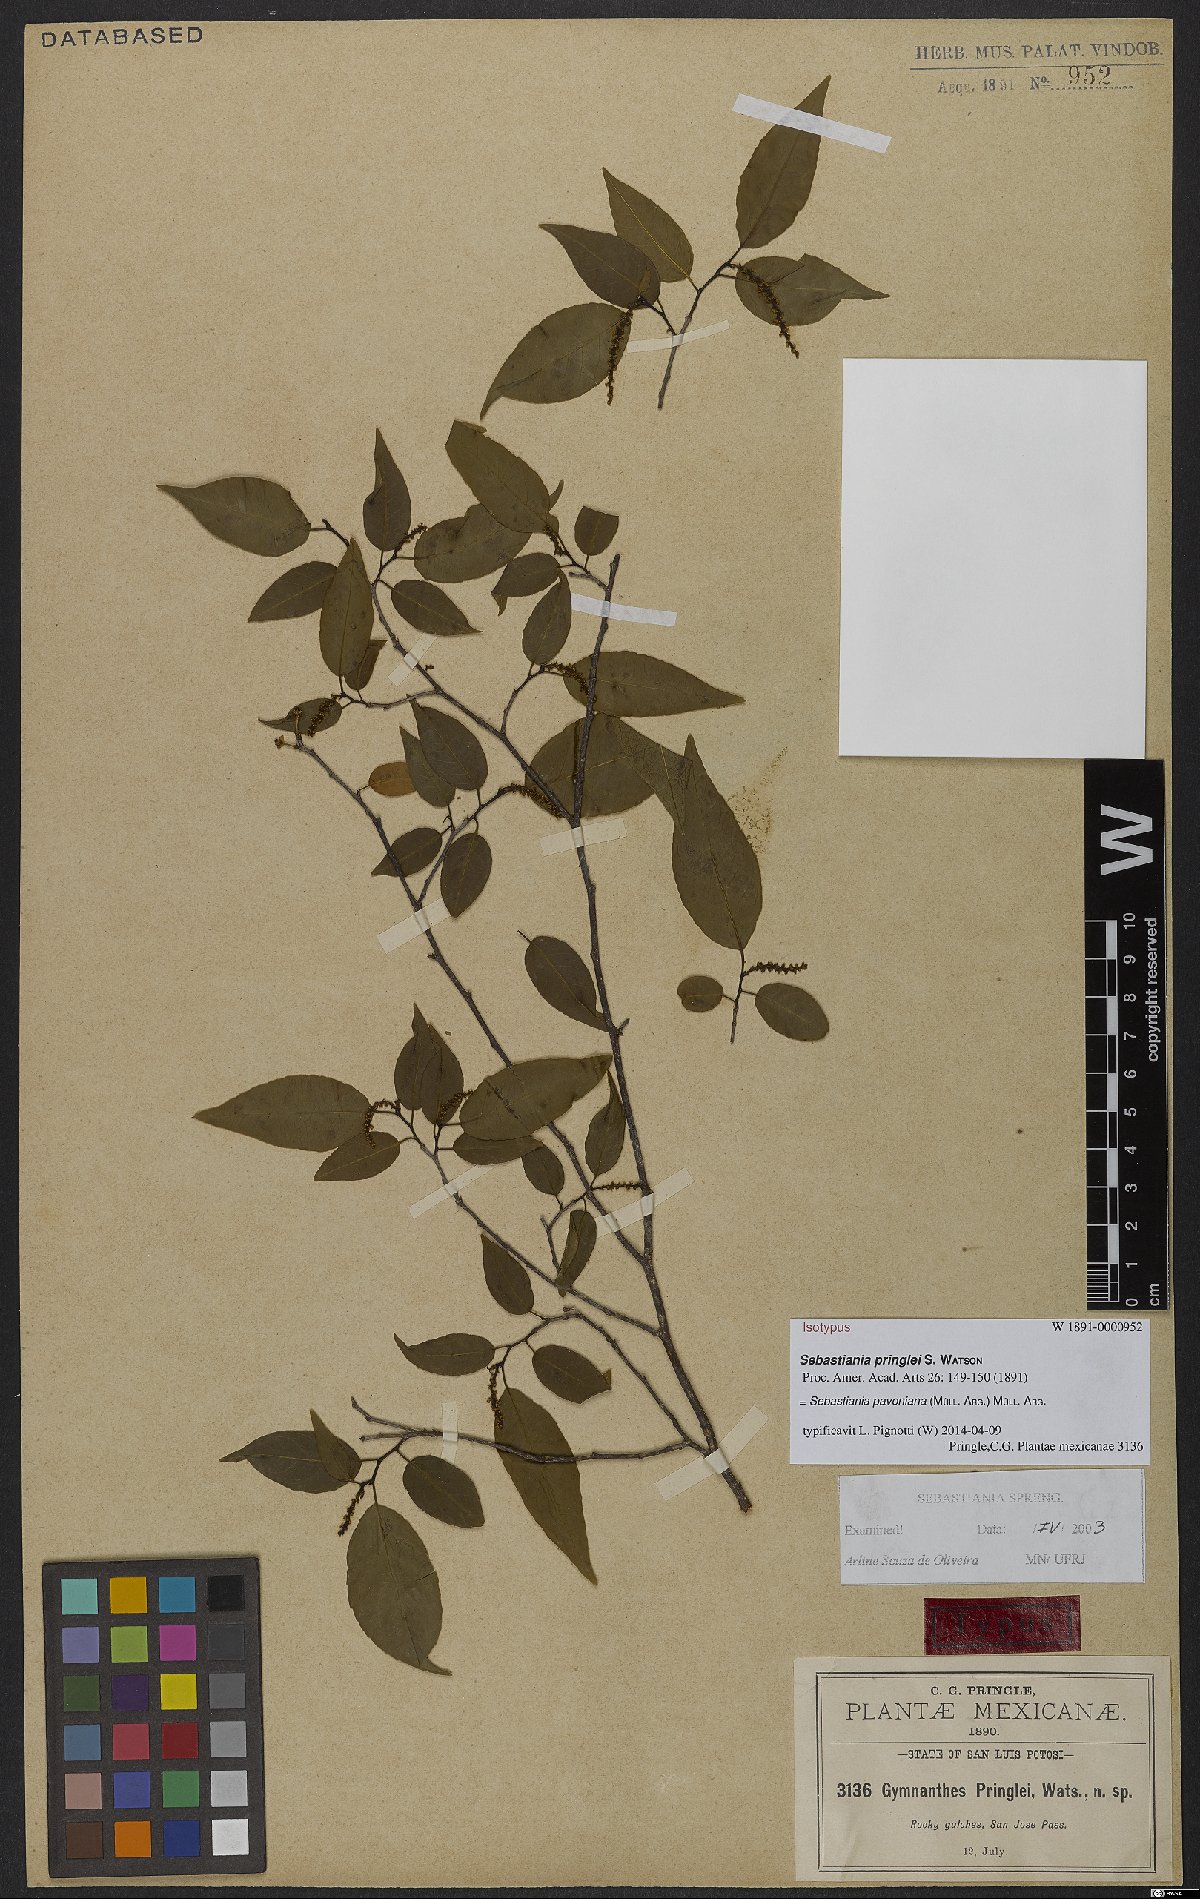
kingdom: Plantae
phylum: Tracheophyta
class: Magnoliopsida
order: Malpighiales
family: Euphorbiaceae
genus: Sebastiania
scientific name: Sebastiania pavoniana
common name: Mexican jumping-beans
